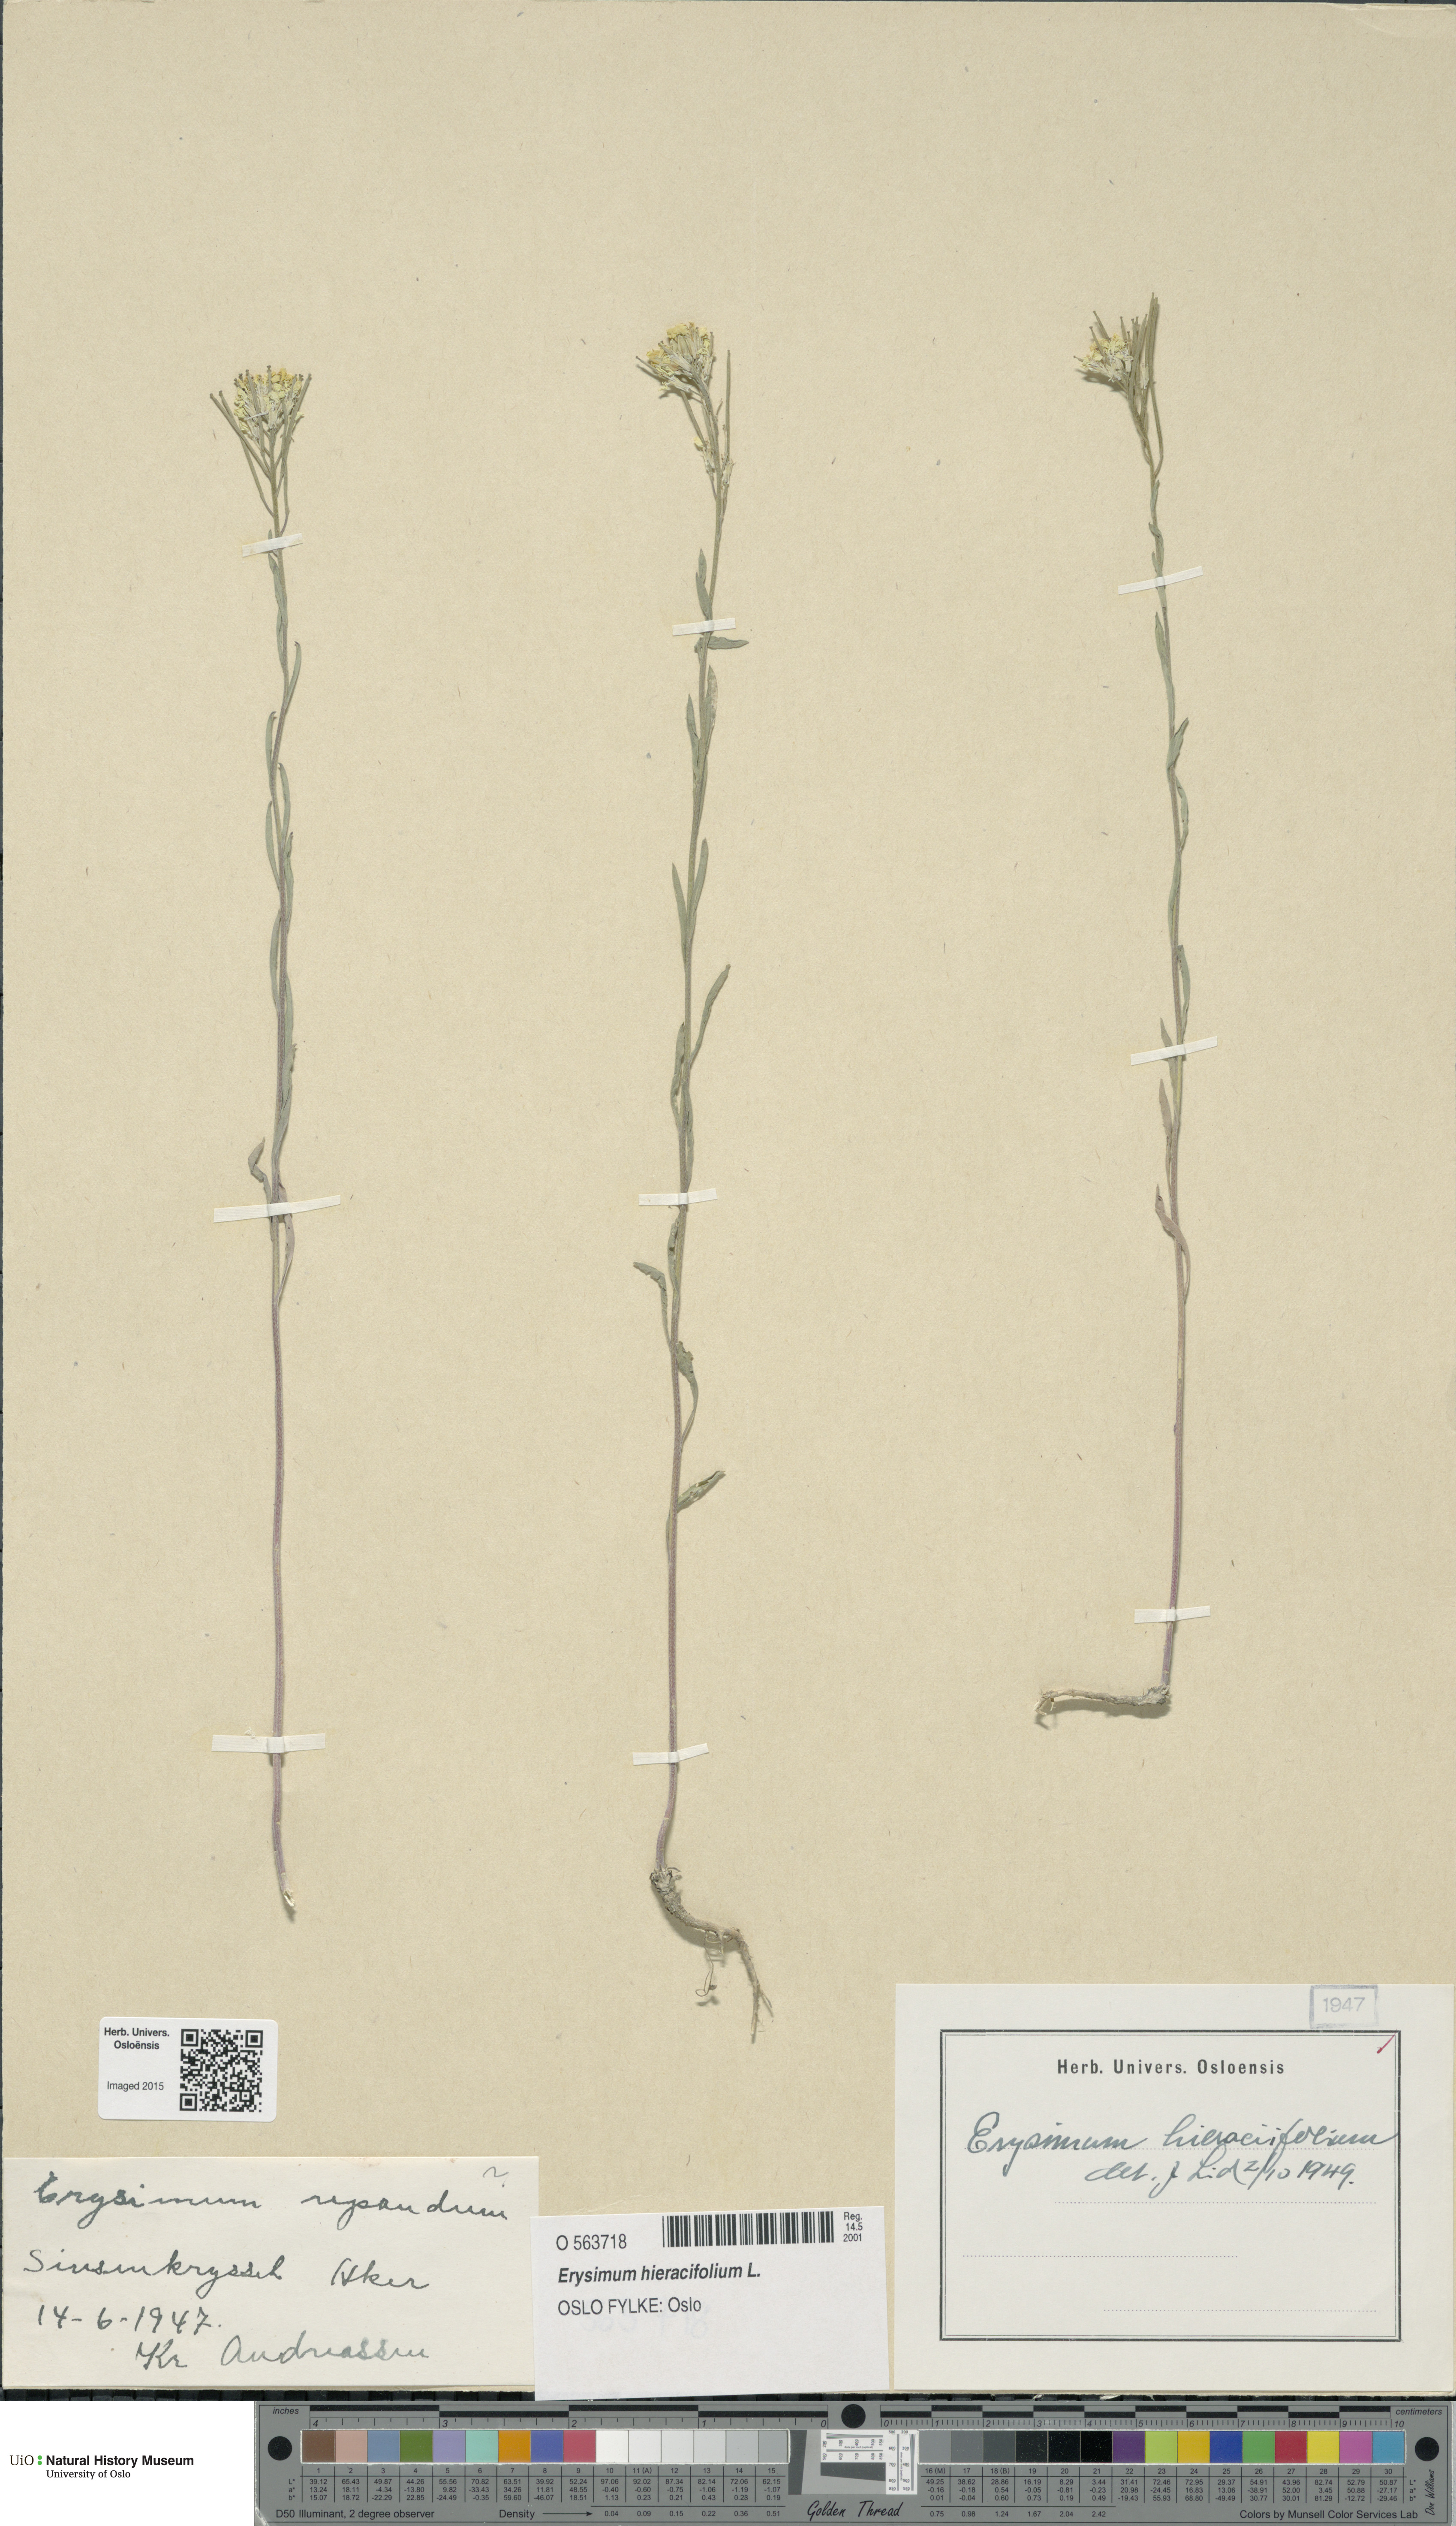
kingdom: Plantae
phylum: Tracheophyta
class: Magnoliopsida
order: Brassicales
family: Brassicaceae
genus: Erysimum
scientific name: Erysimum hieraciifolium
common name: European wallflower
